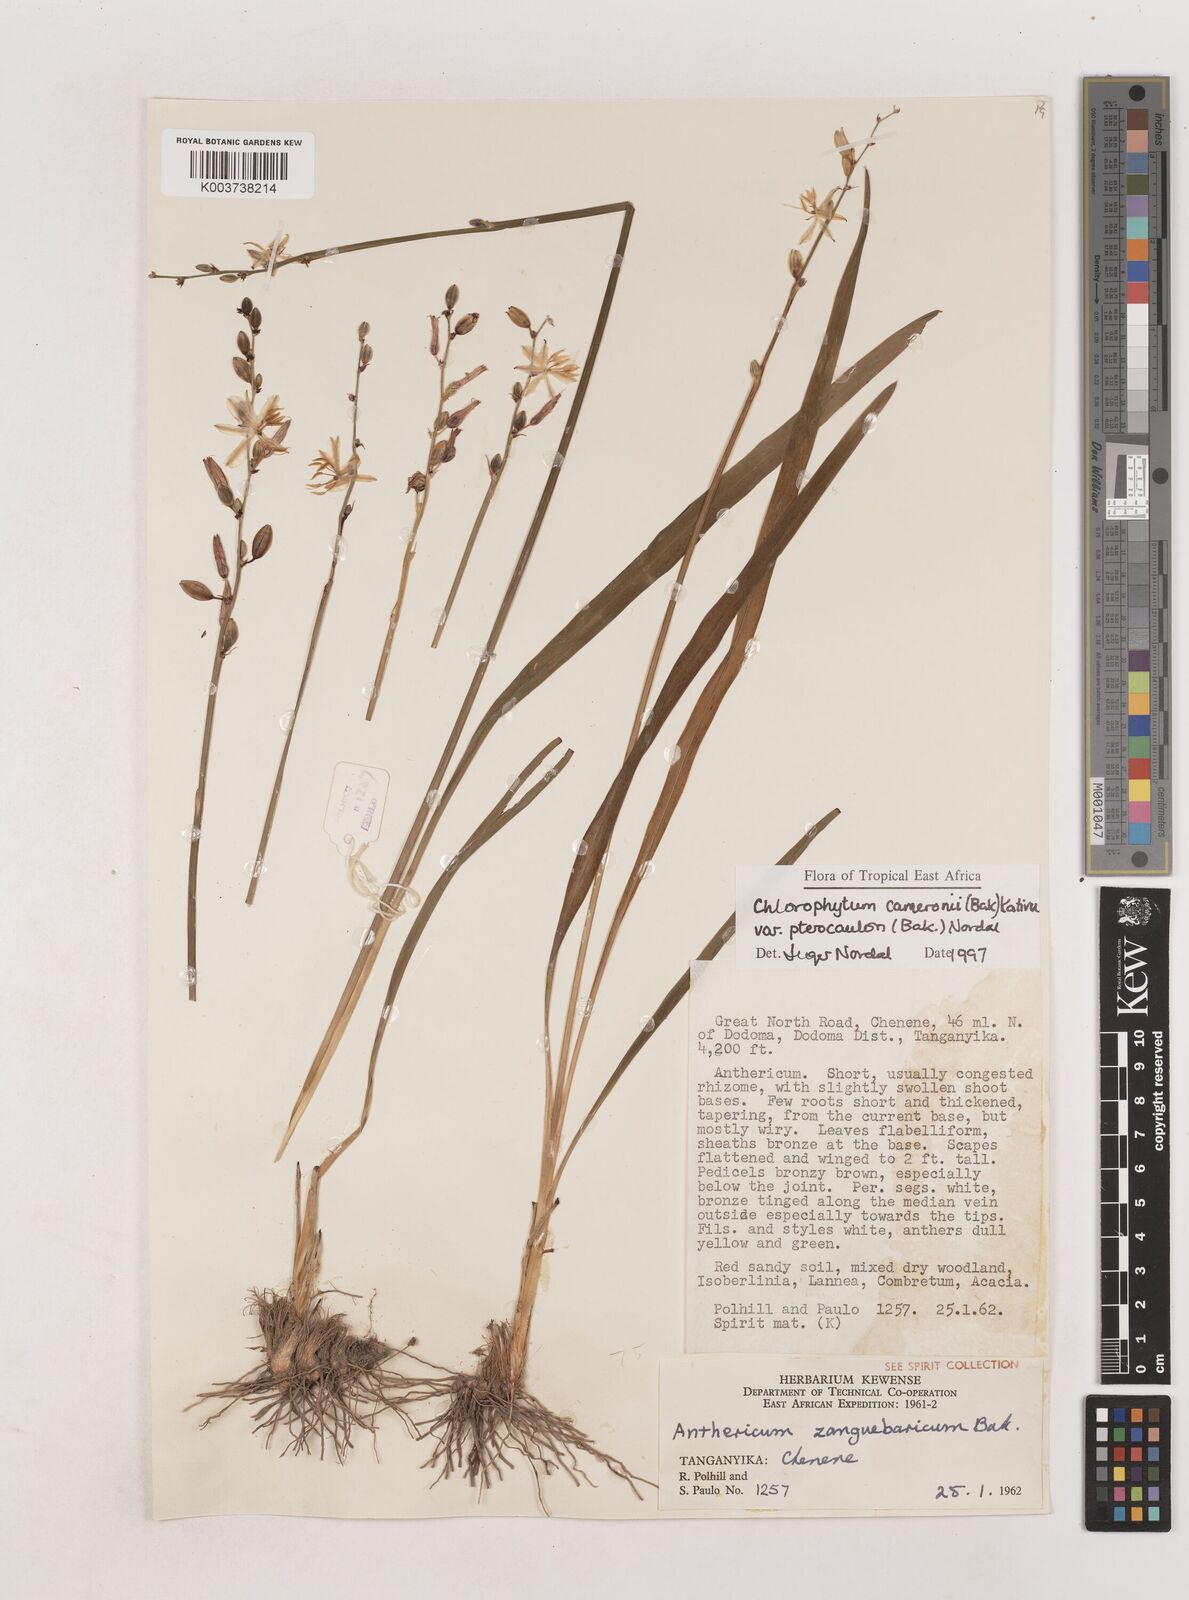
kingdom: Plantae
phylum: Tracheophyta
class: Liliopsida
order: Asparagales
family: Asparagaceae
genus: Chlorophytum
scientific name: Chlorophytum cameronii
